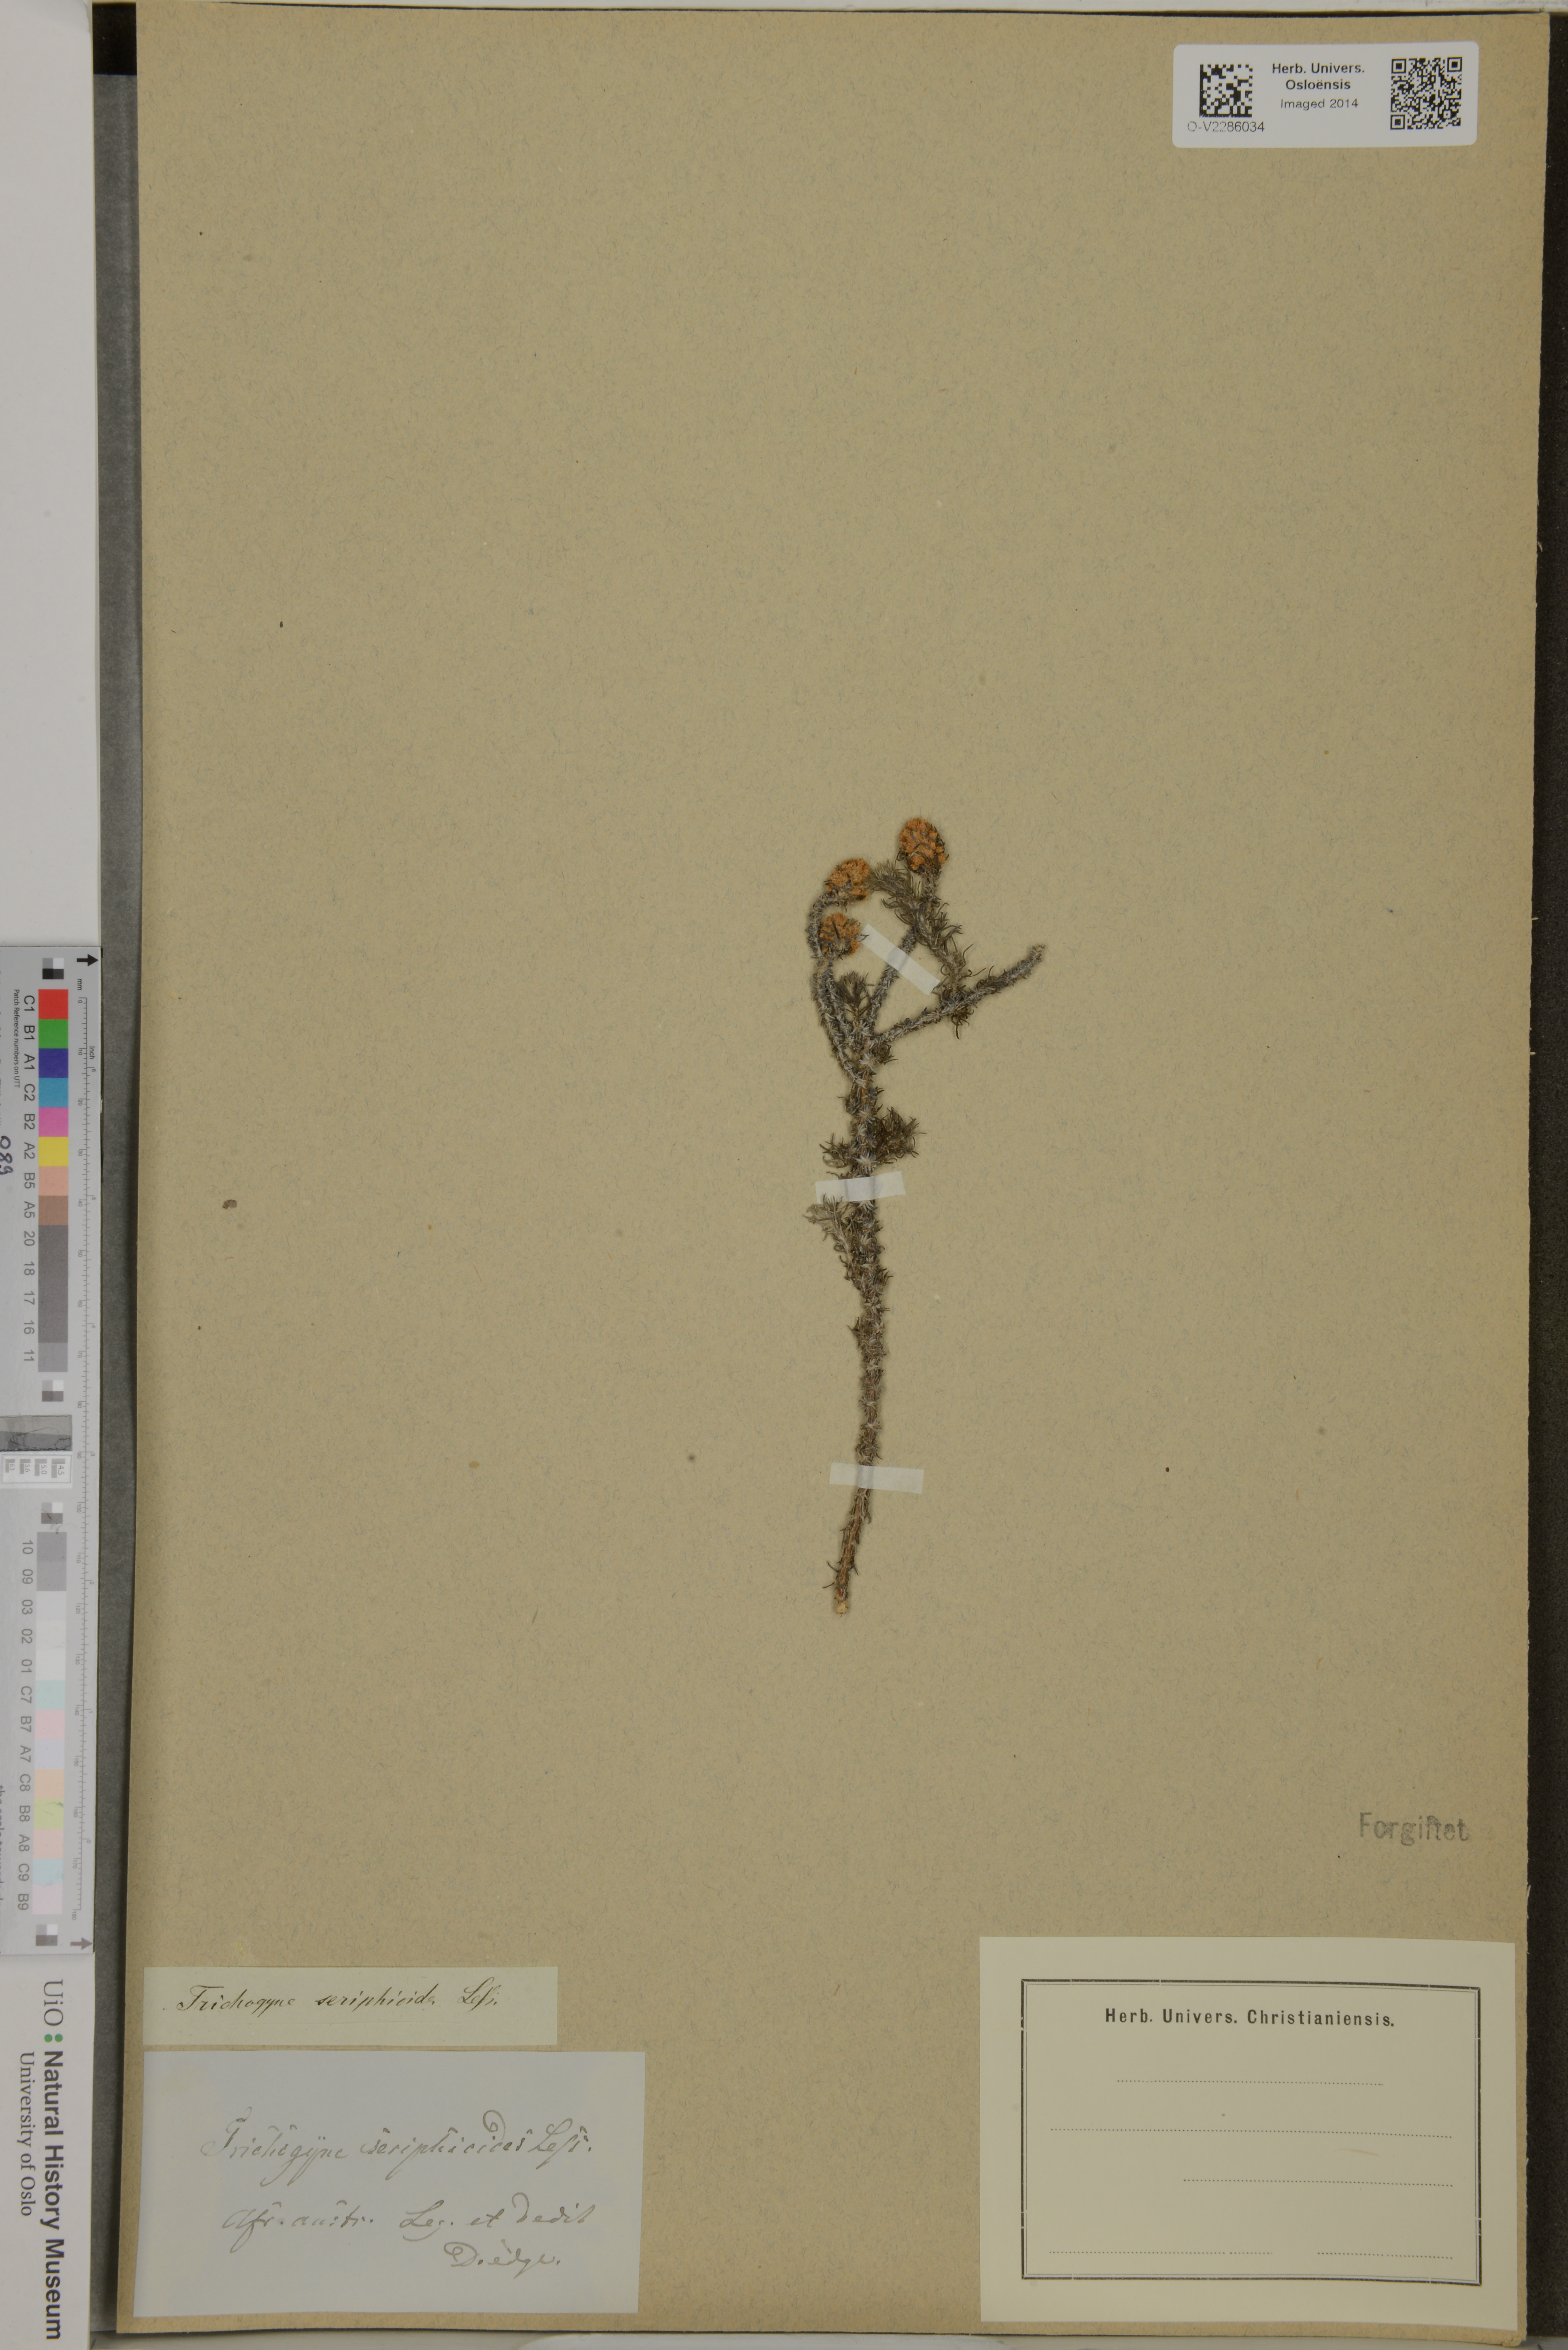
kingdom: Plantae
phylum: Tracheophyta
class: Magnoliopsida
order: Asterales
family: Asteraceae
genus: Ifloga
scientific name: Ifloga ambigua
